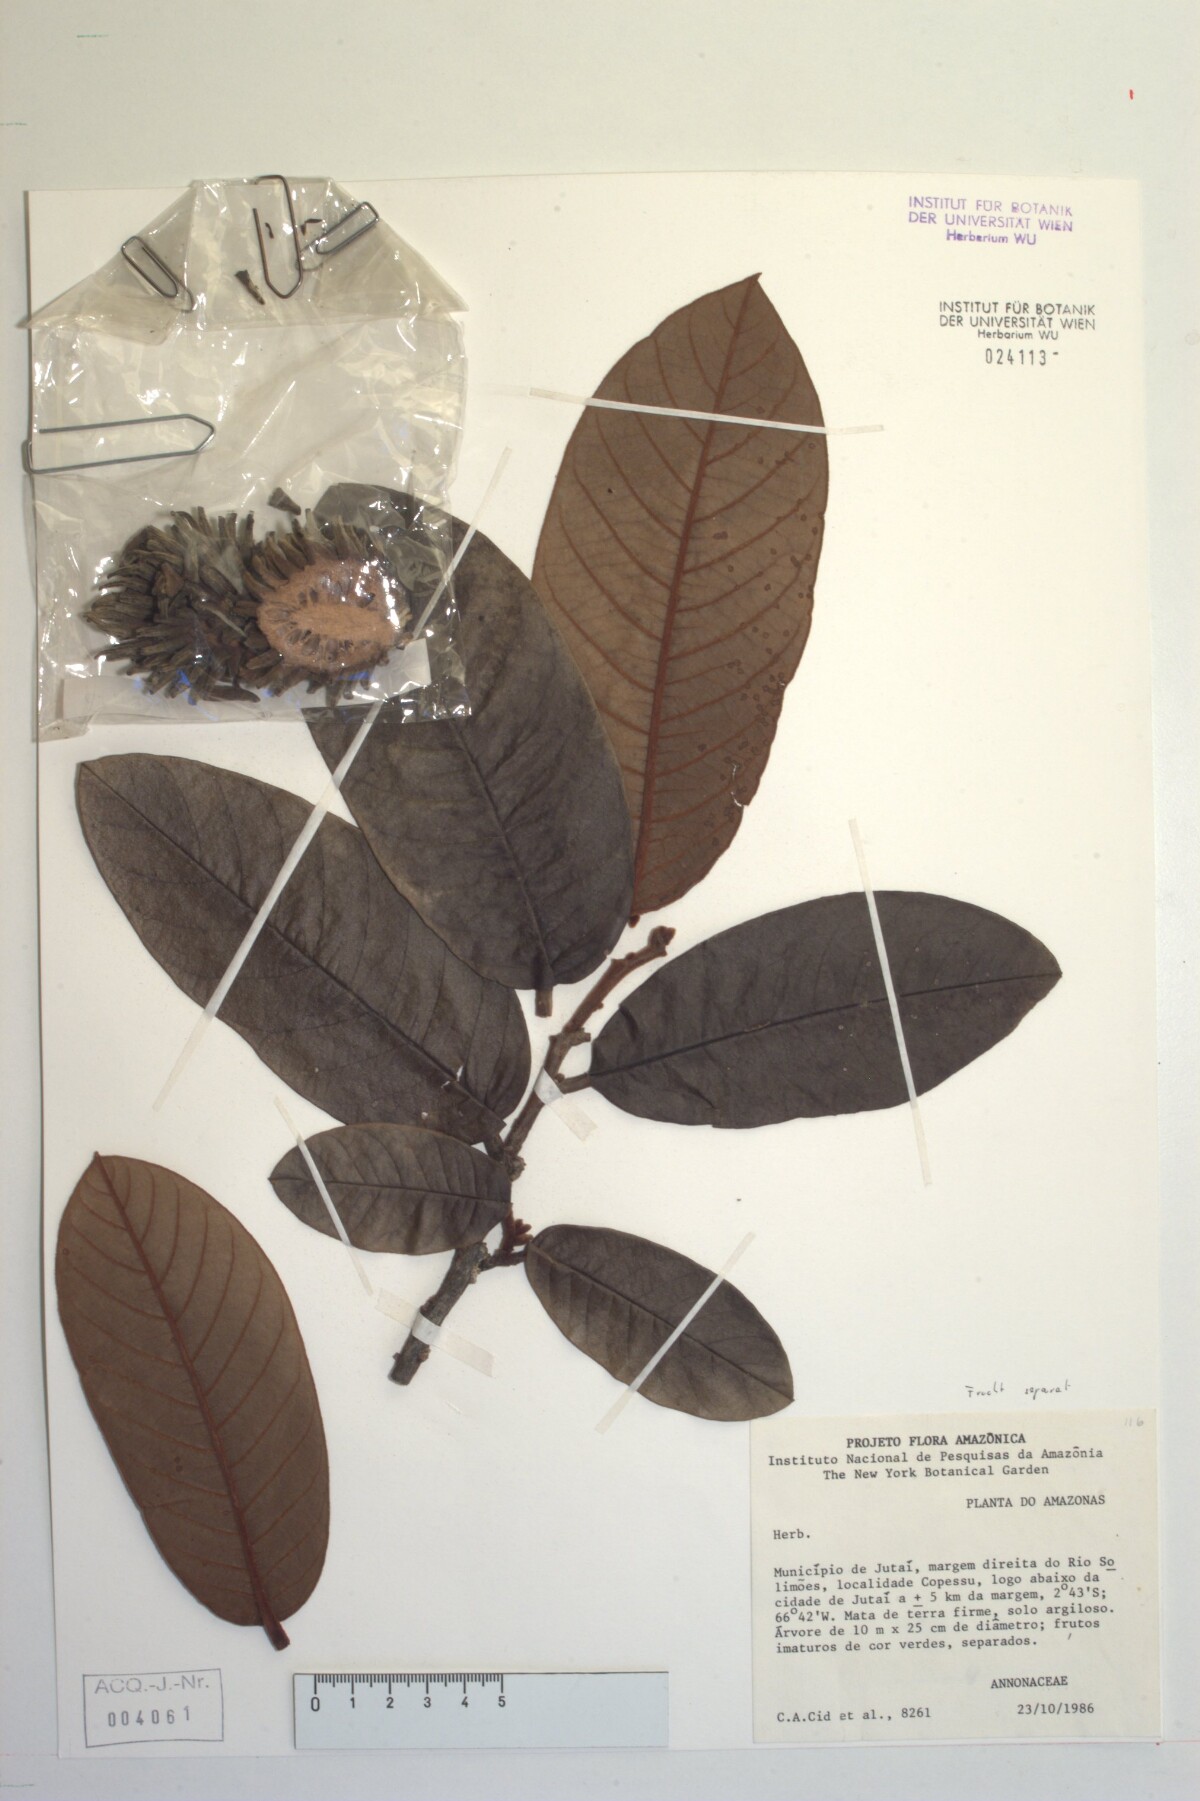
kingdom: Plantae
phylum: Tracheophyta
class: Magnoliopsida
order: Magnoliales
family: Annonaceae
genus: Annona
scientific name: Annona
